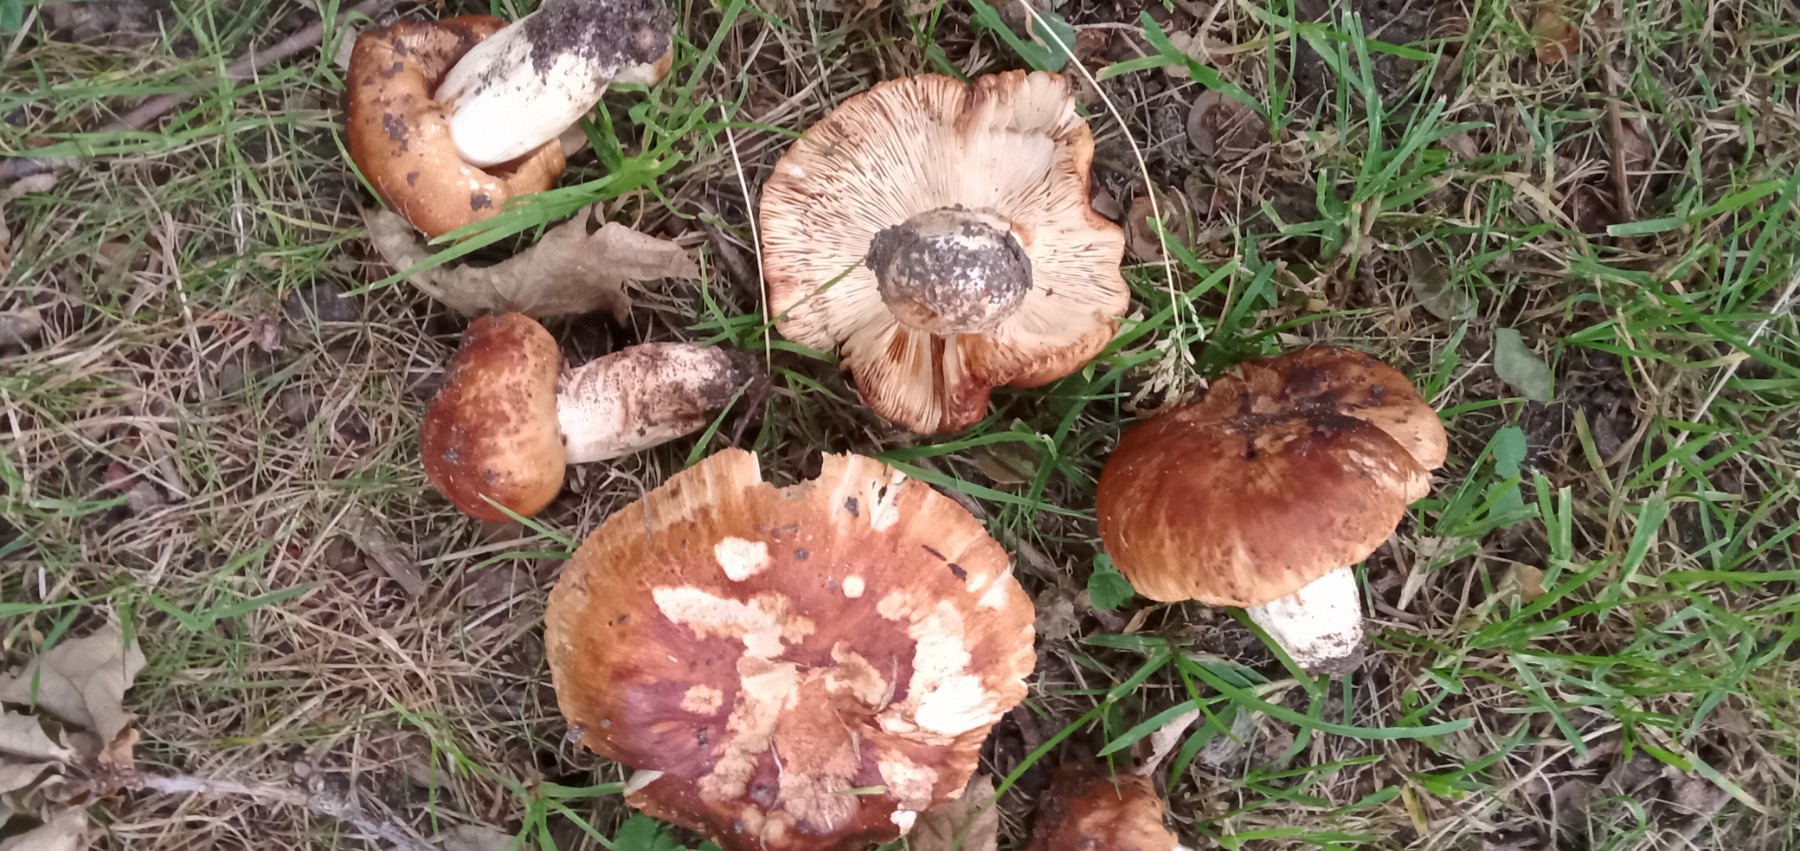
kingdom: Fungi
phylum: Basidiomycota
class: Agaricomycetes
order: Russulales
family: Russulaceae
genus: Russula
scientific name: Russula foetens
